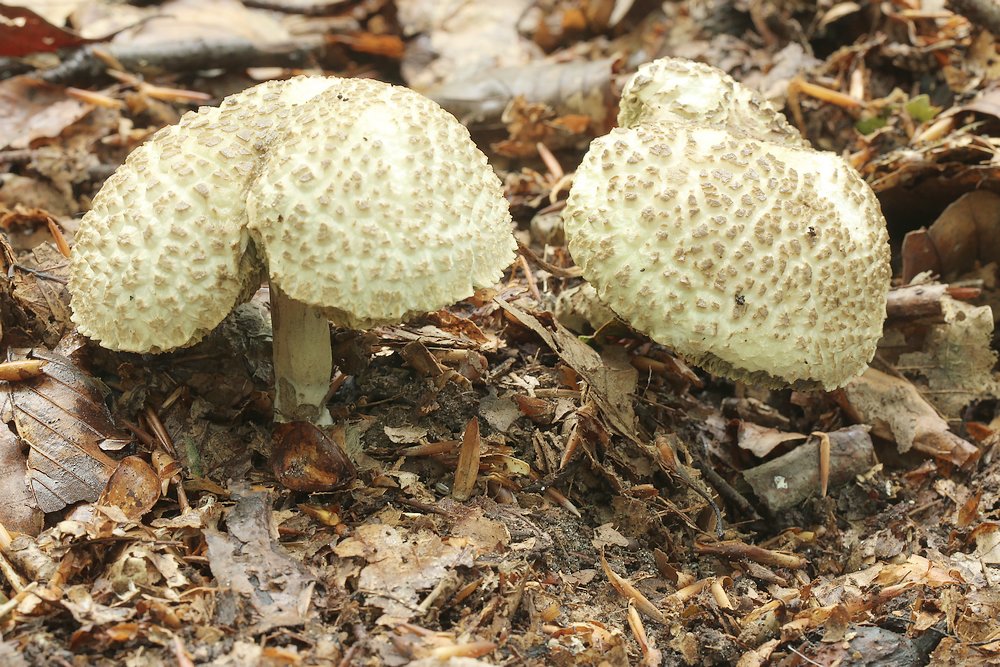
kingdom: Fungi
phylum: Basidiomycota
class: Agaricomycetes
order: Boletales
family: Boletaceae
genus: Xerocomellus
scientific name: Xerocomellus porosporus
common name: hvidsprukken rørhat
